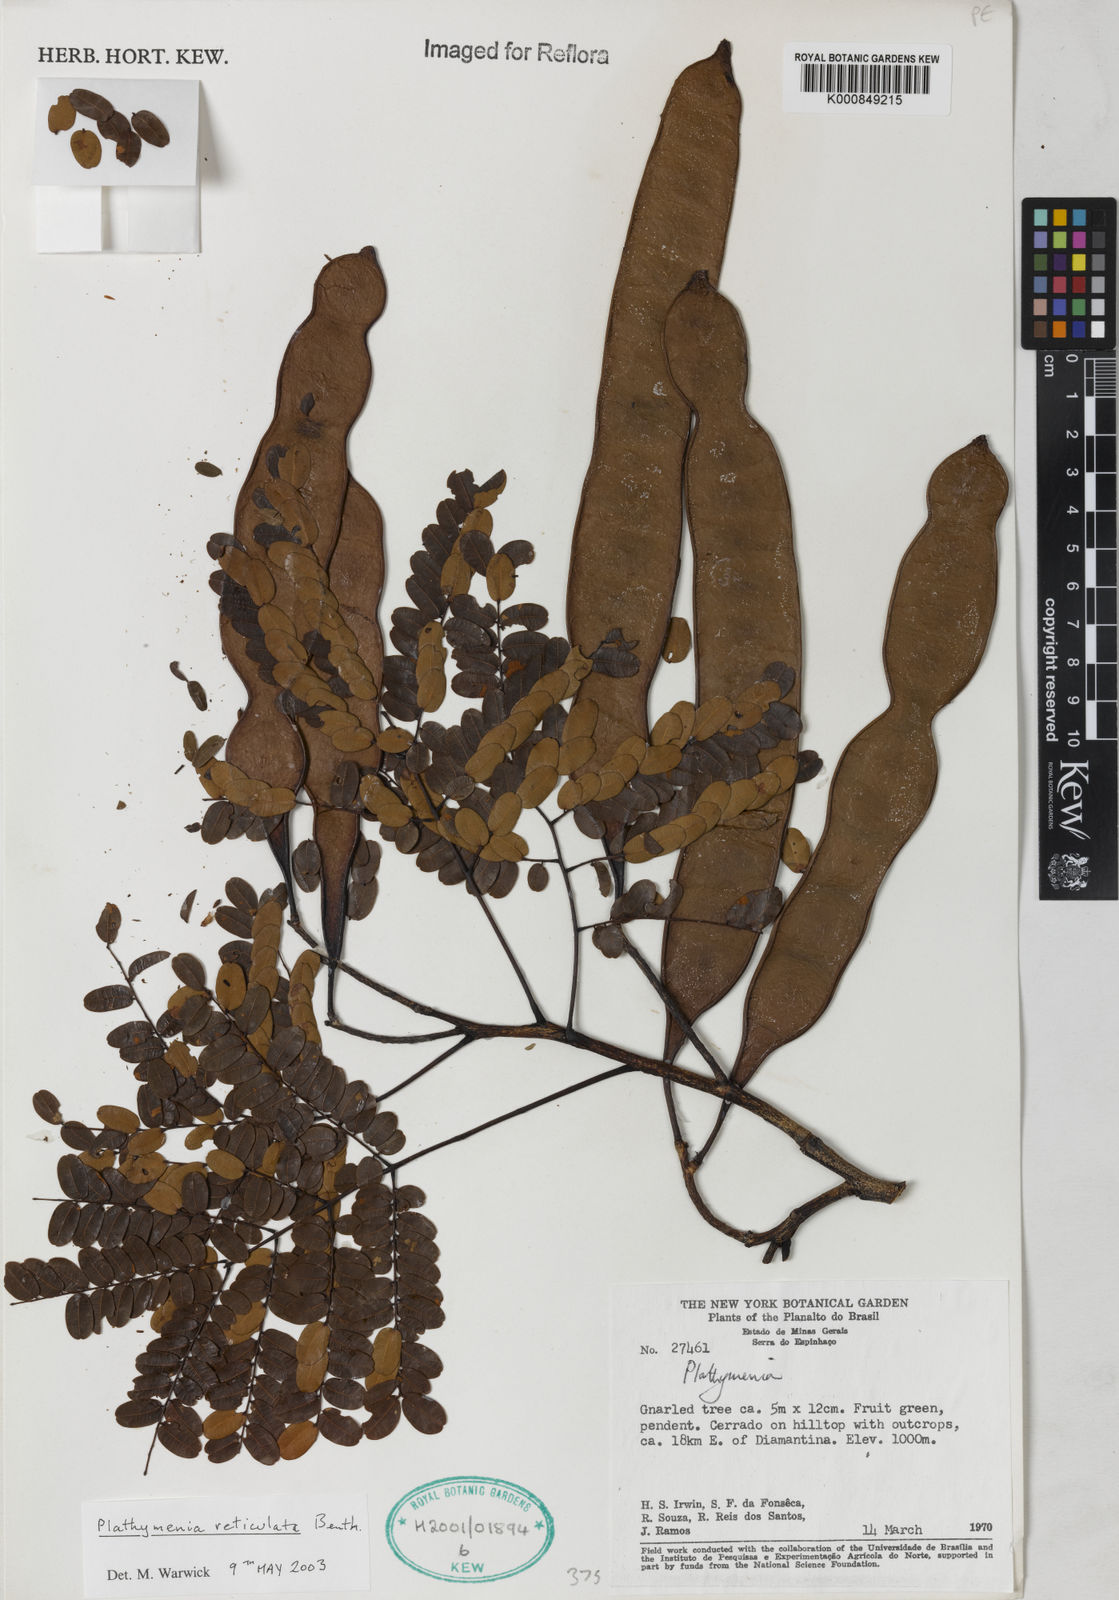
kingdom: Plantae
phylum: Tracheophyta
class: Magnoliopsida
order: Fabales
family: Fabaceae
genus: Plathymenia
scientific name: Plathymenia reticulata
